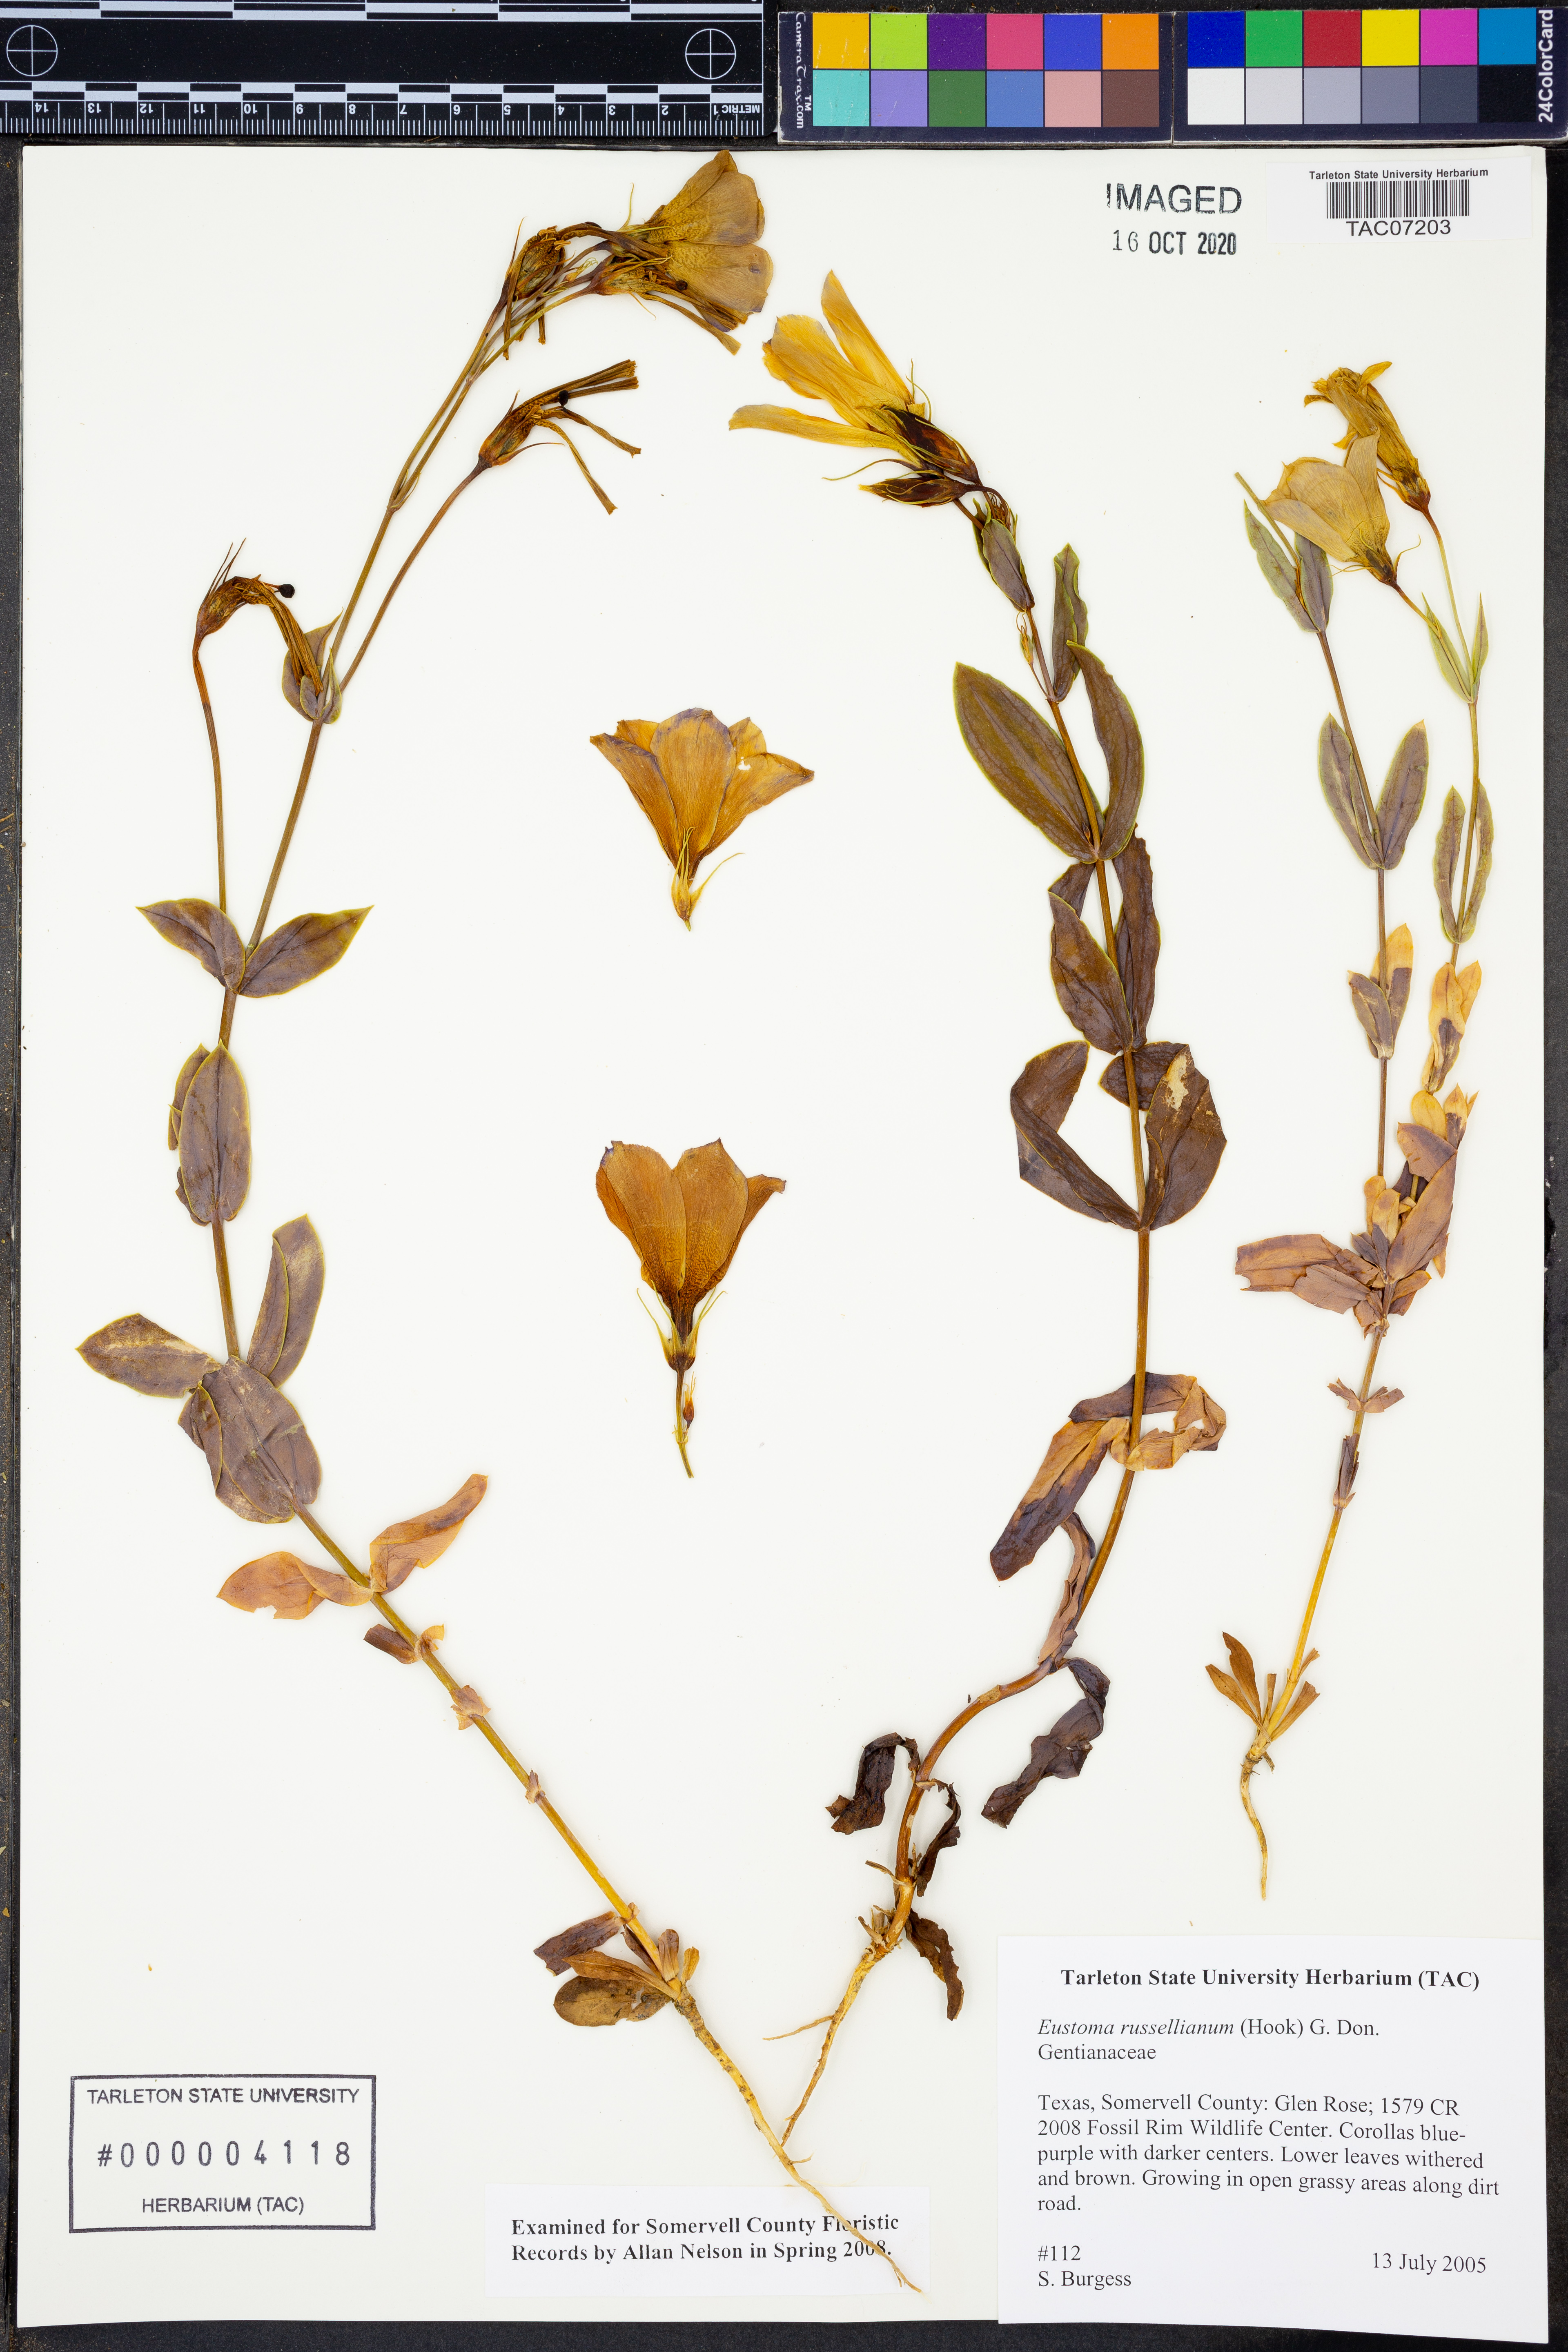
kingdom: Plantae
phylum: Tracheophyta
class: Magnoliopsida
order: Gentianales
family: Gentianaceae
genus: Eustoma
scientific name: Eustoma russellianum
